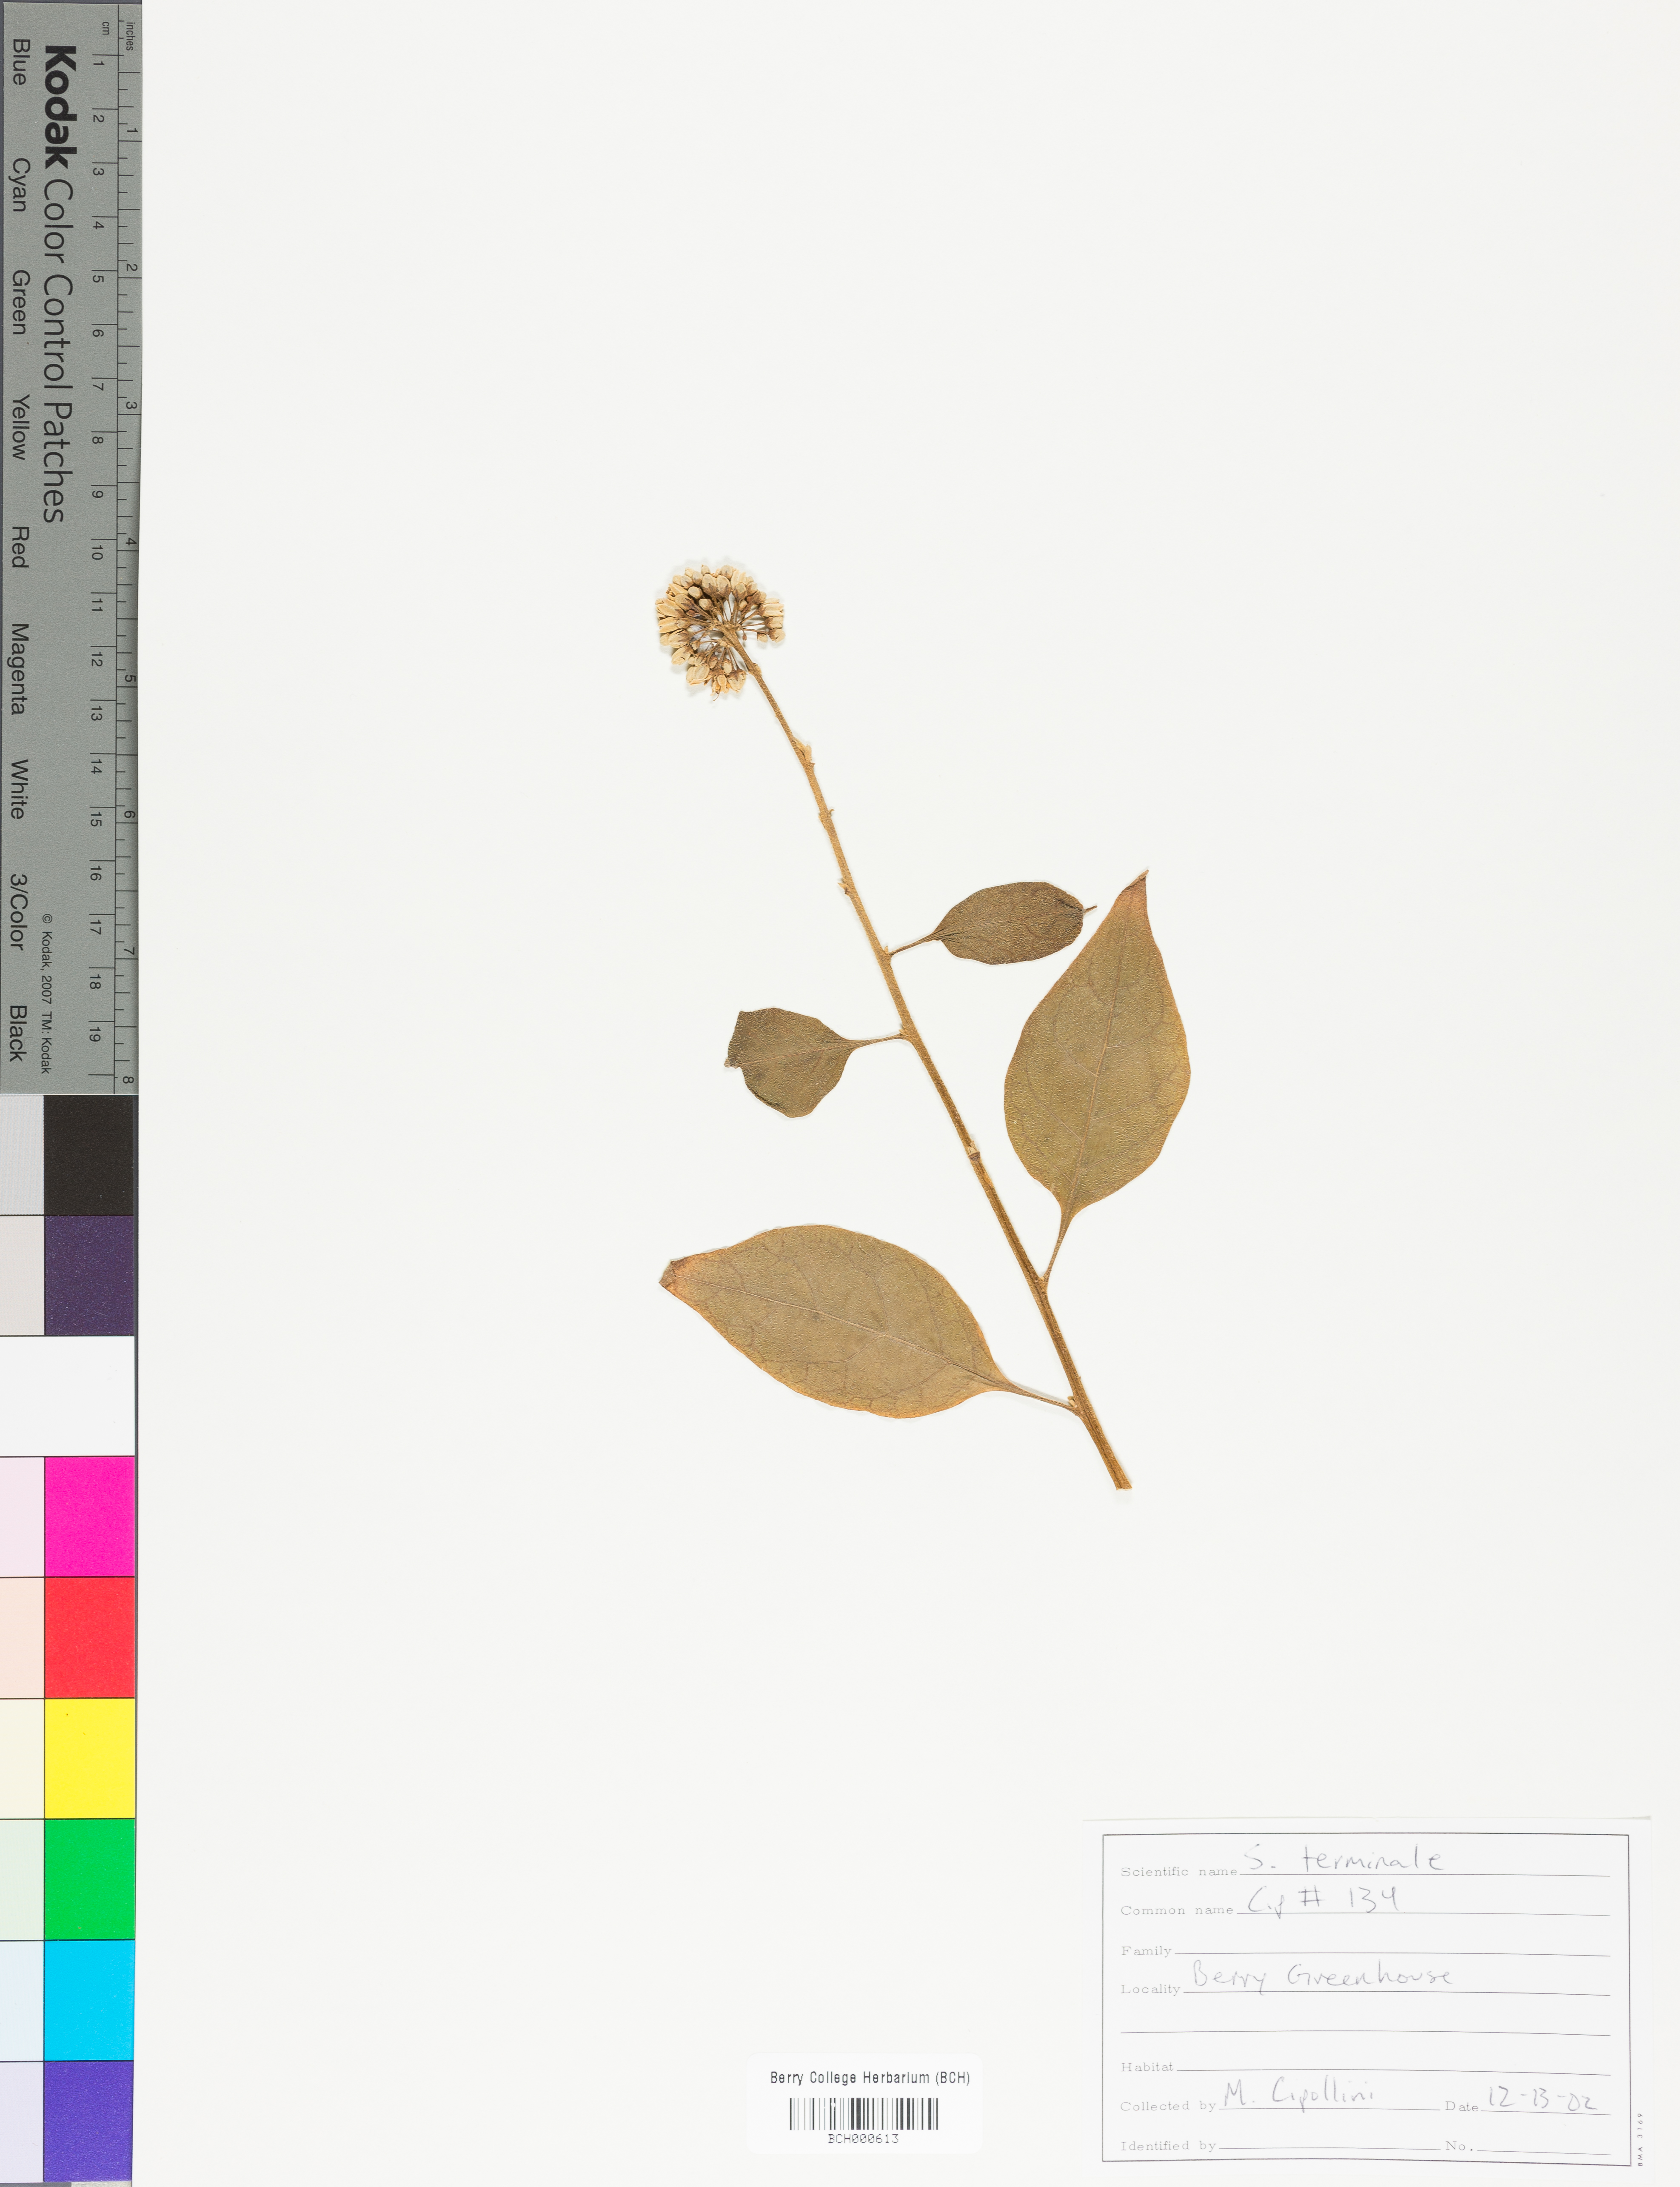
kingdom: Plantae
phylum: Tracheophyta
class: Magnoliopsida
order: Solanales
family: Solanaceae
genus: Solanum
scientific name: Solanum terminale
